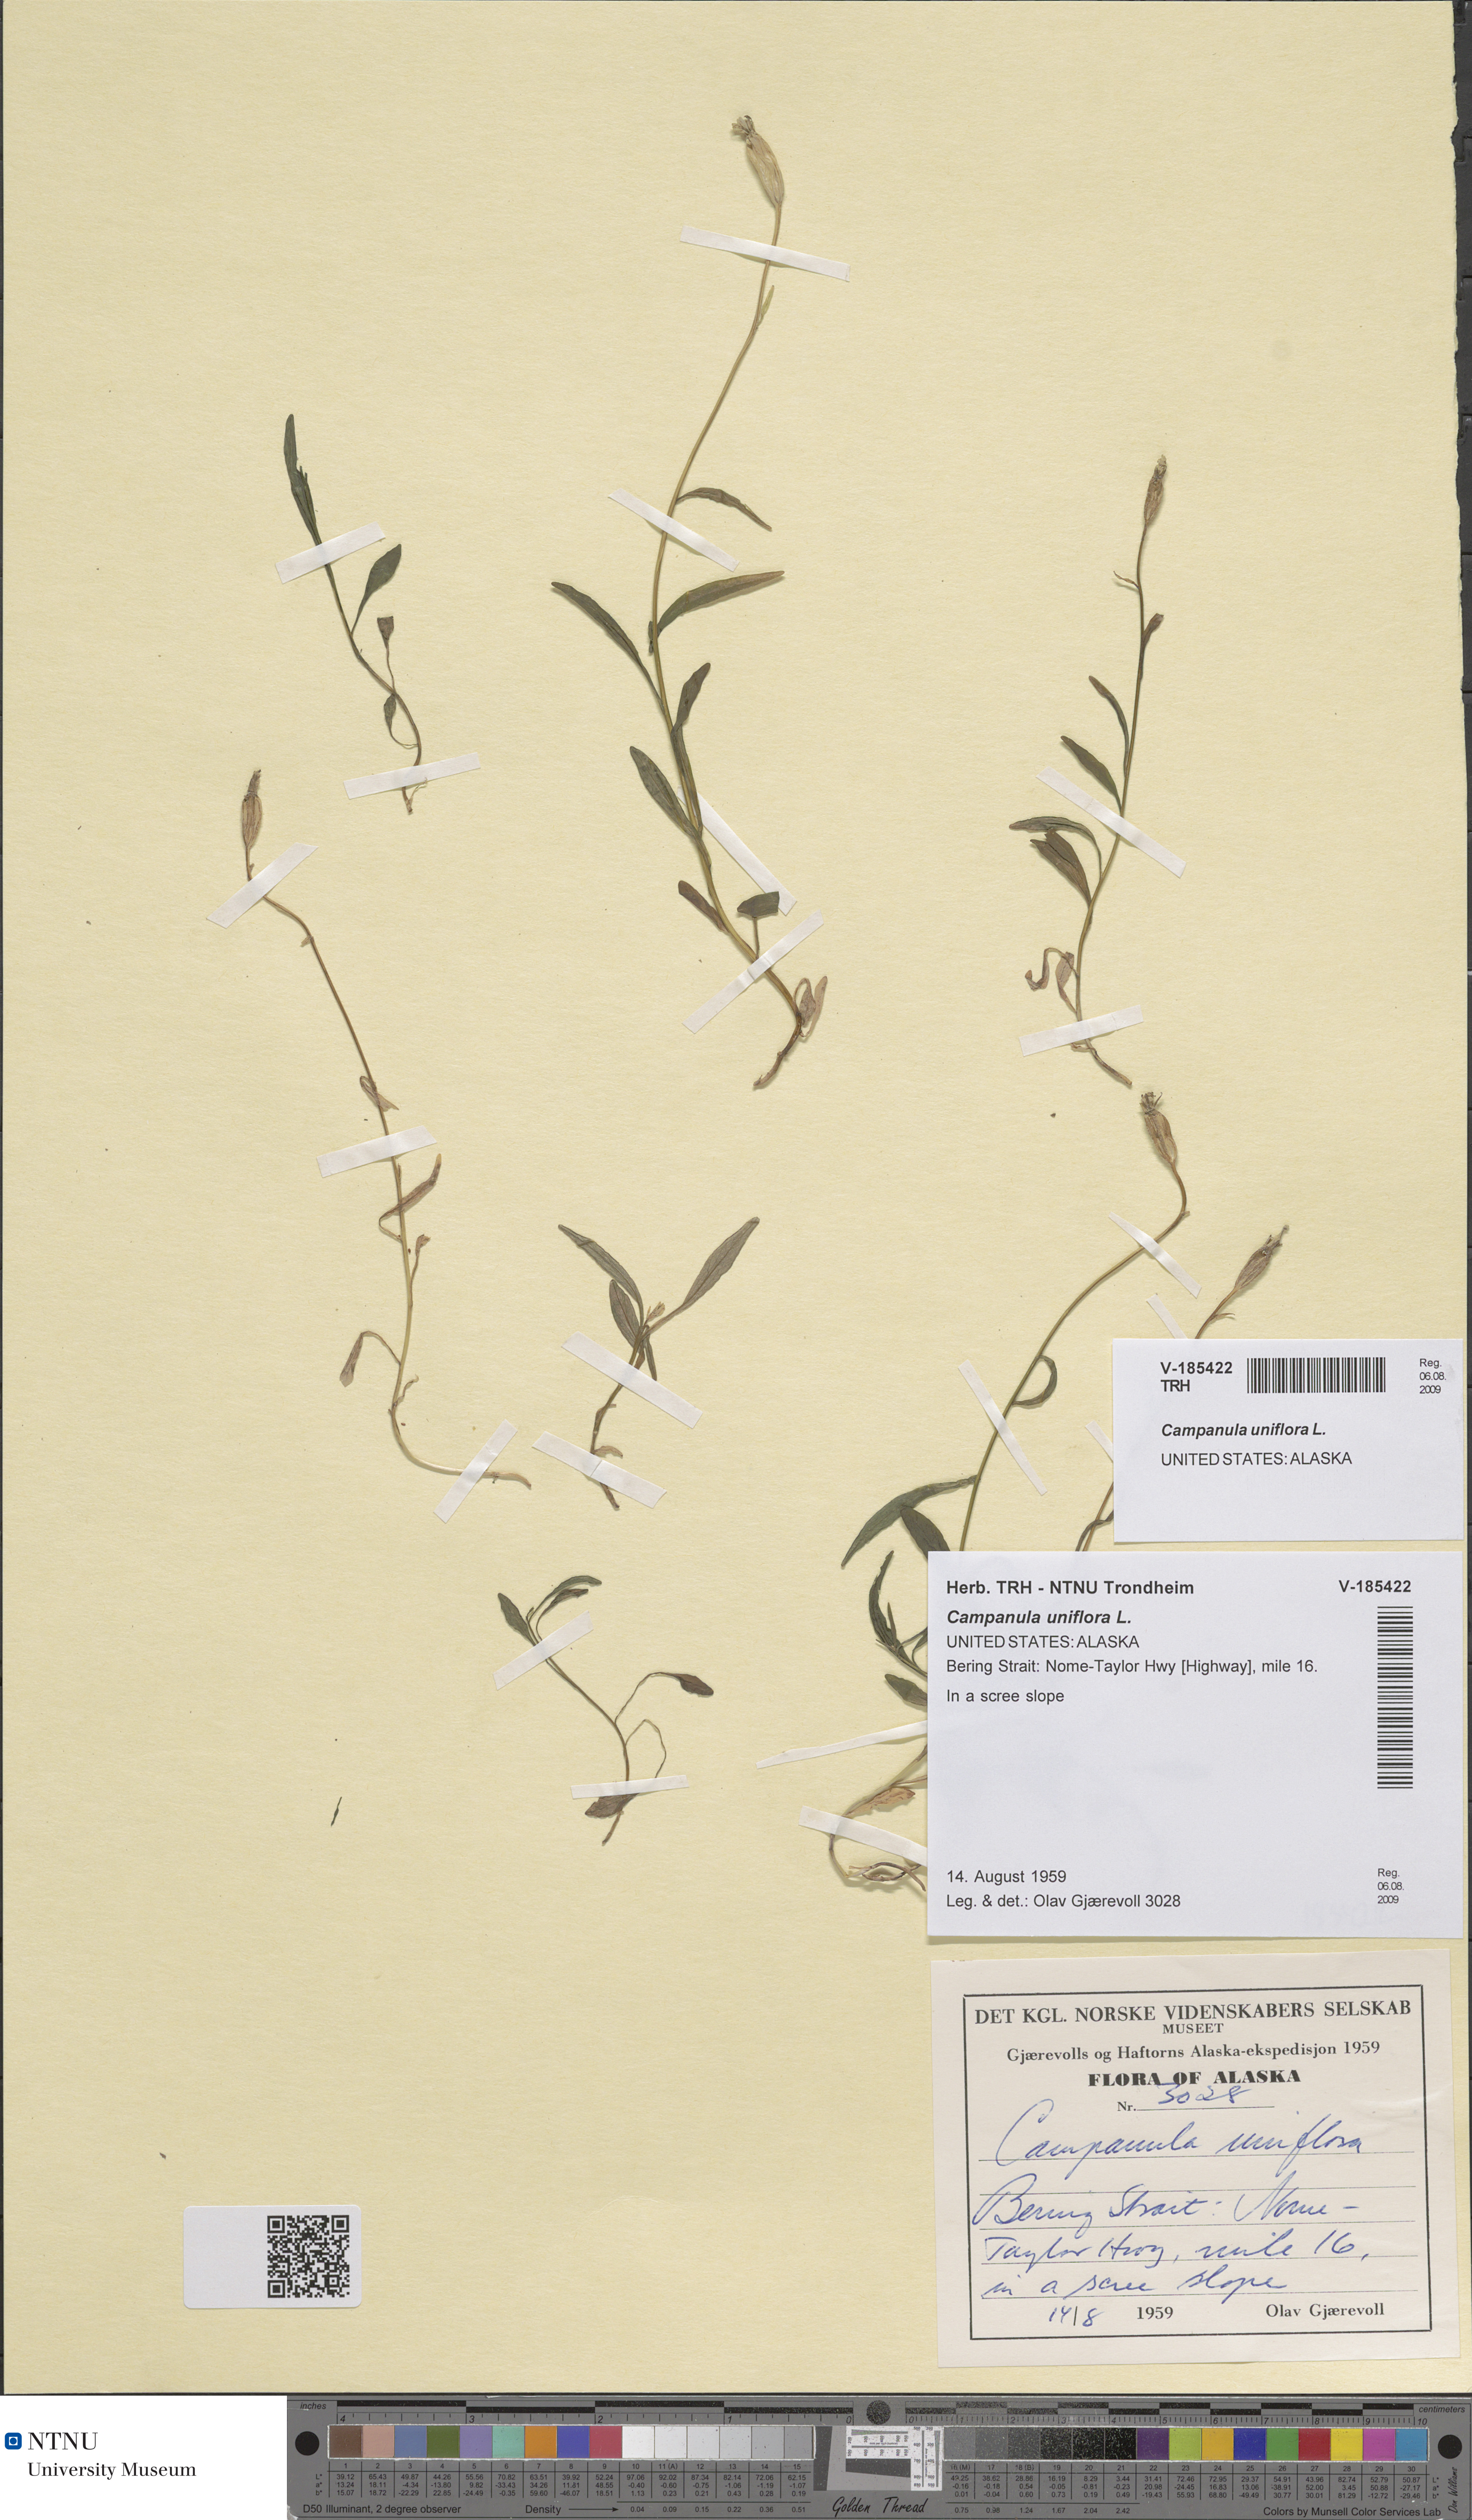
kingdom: Plantae
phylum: Tracheophyta
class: Magnoliopsida
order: Asterales
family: Campanulaceae
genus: Melanocalyx
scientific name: Melanocalyx uniflora
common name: Alpine harebell
